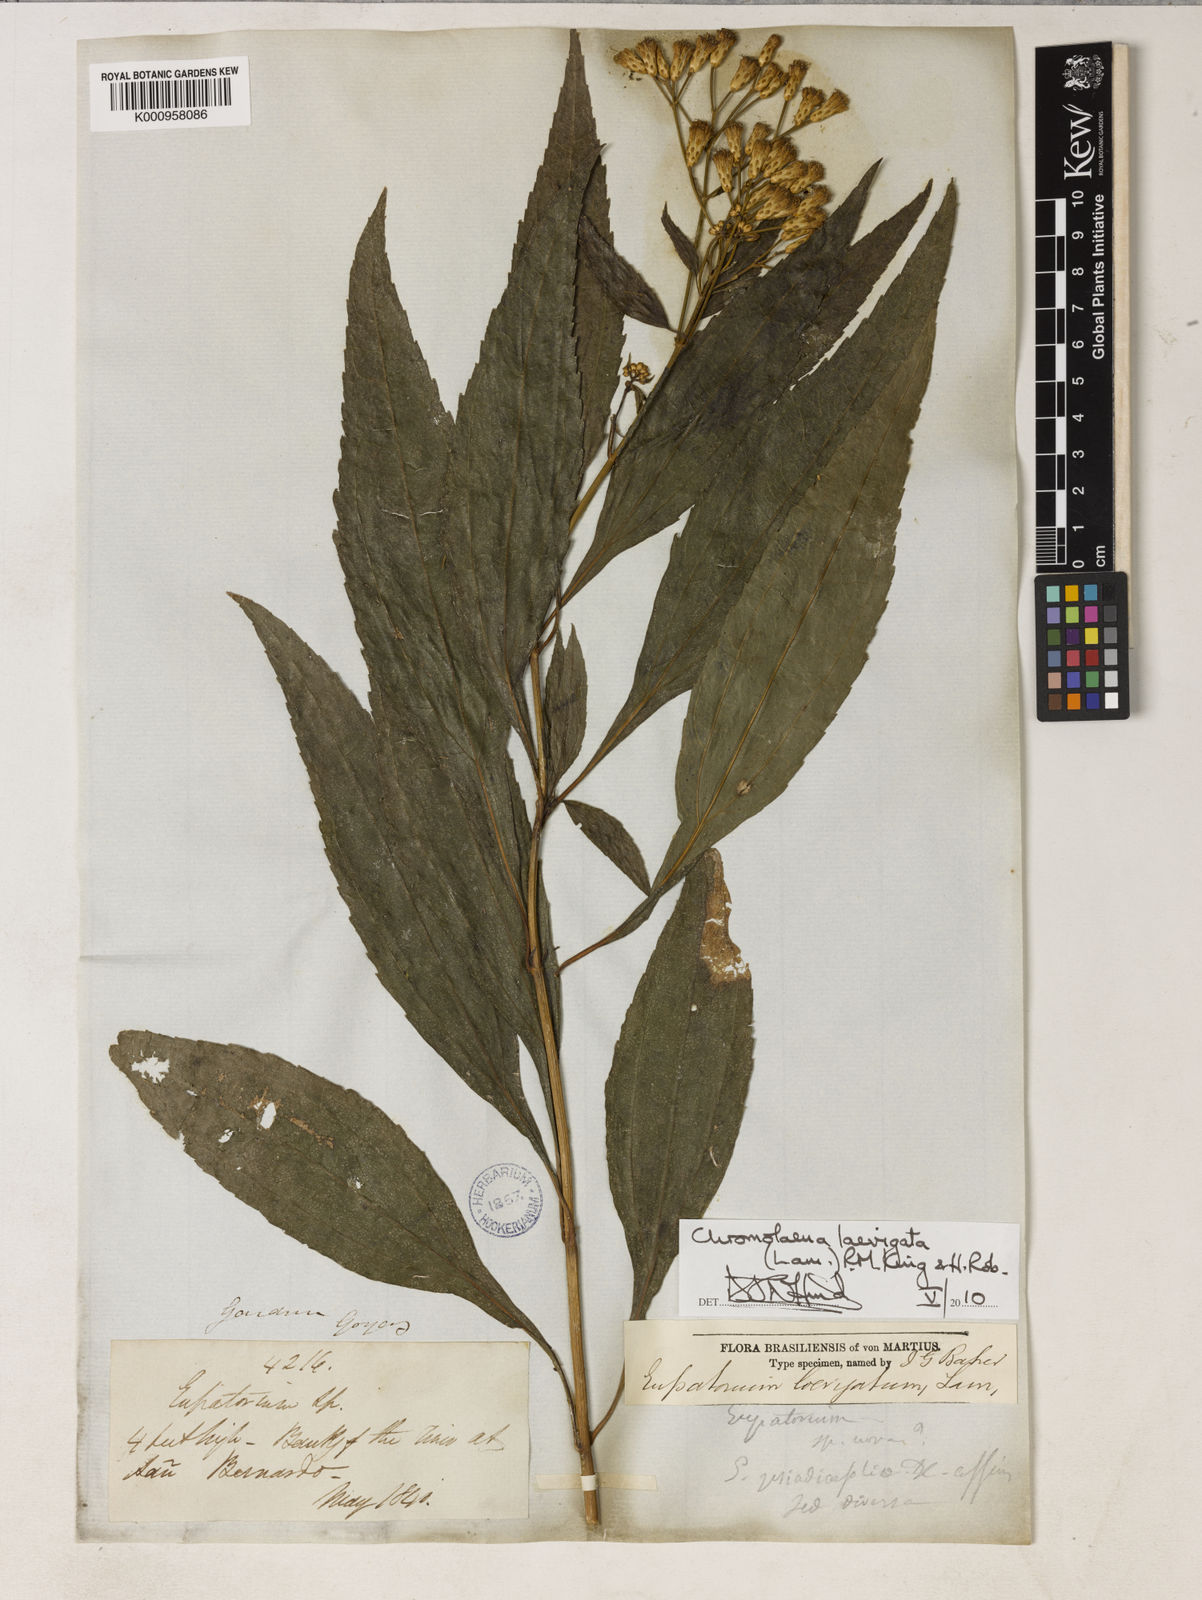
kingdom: Plantae
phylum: Tracheophyta
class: Magnoliopsida
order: Asterales
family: Asteraceae
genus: Chromolaena
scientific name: Chromolaena laevigata
